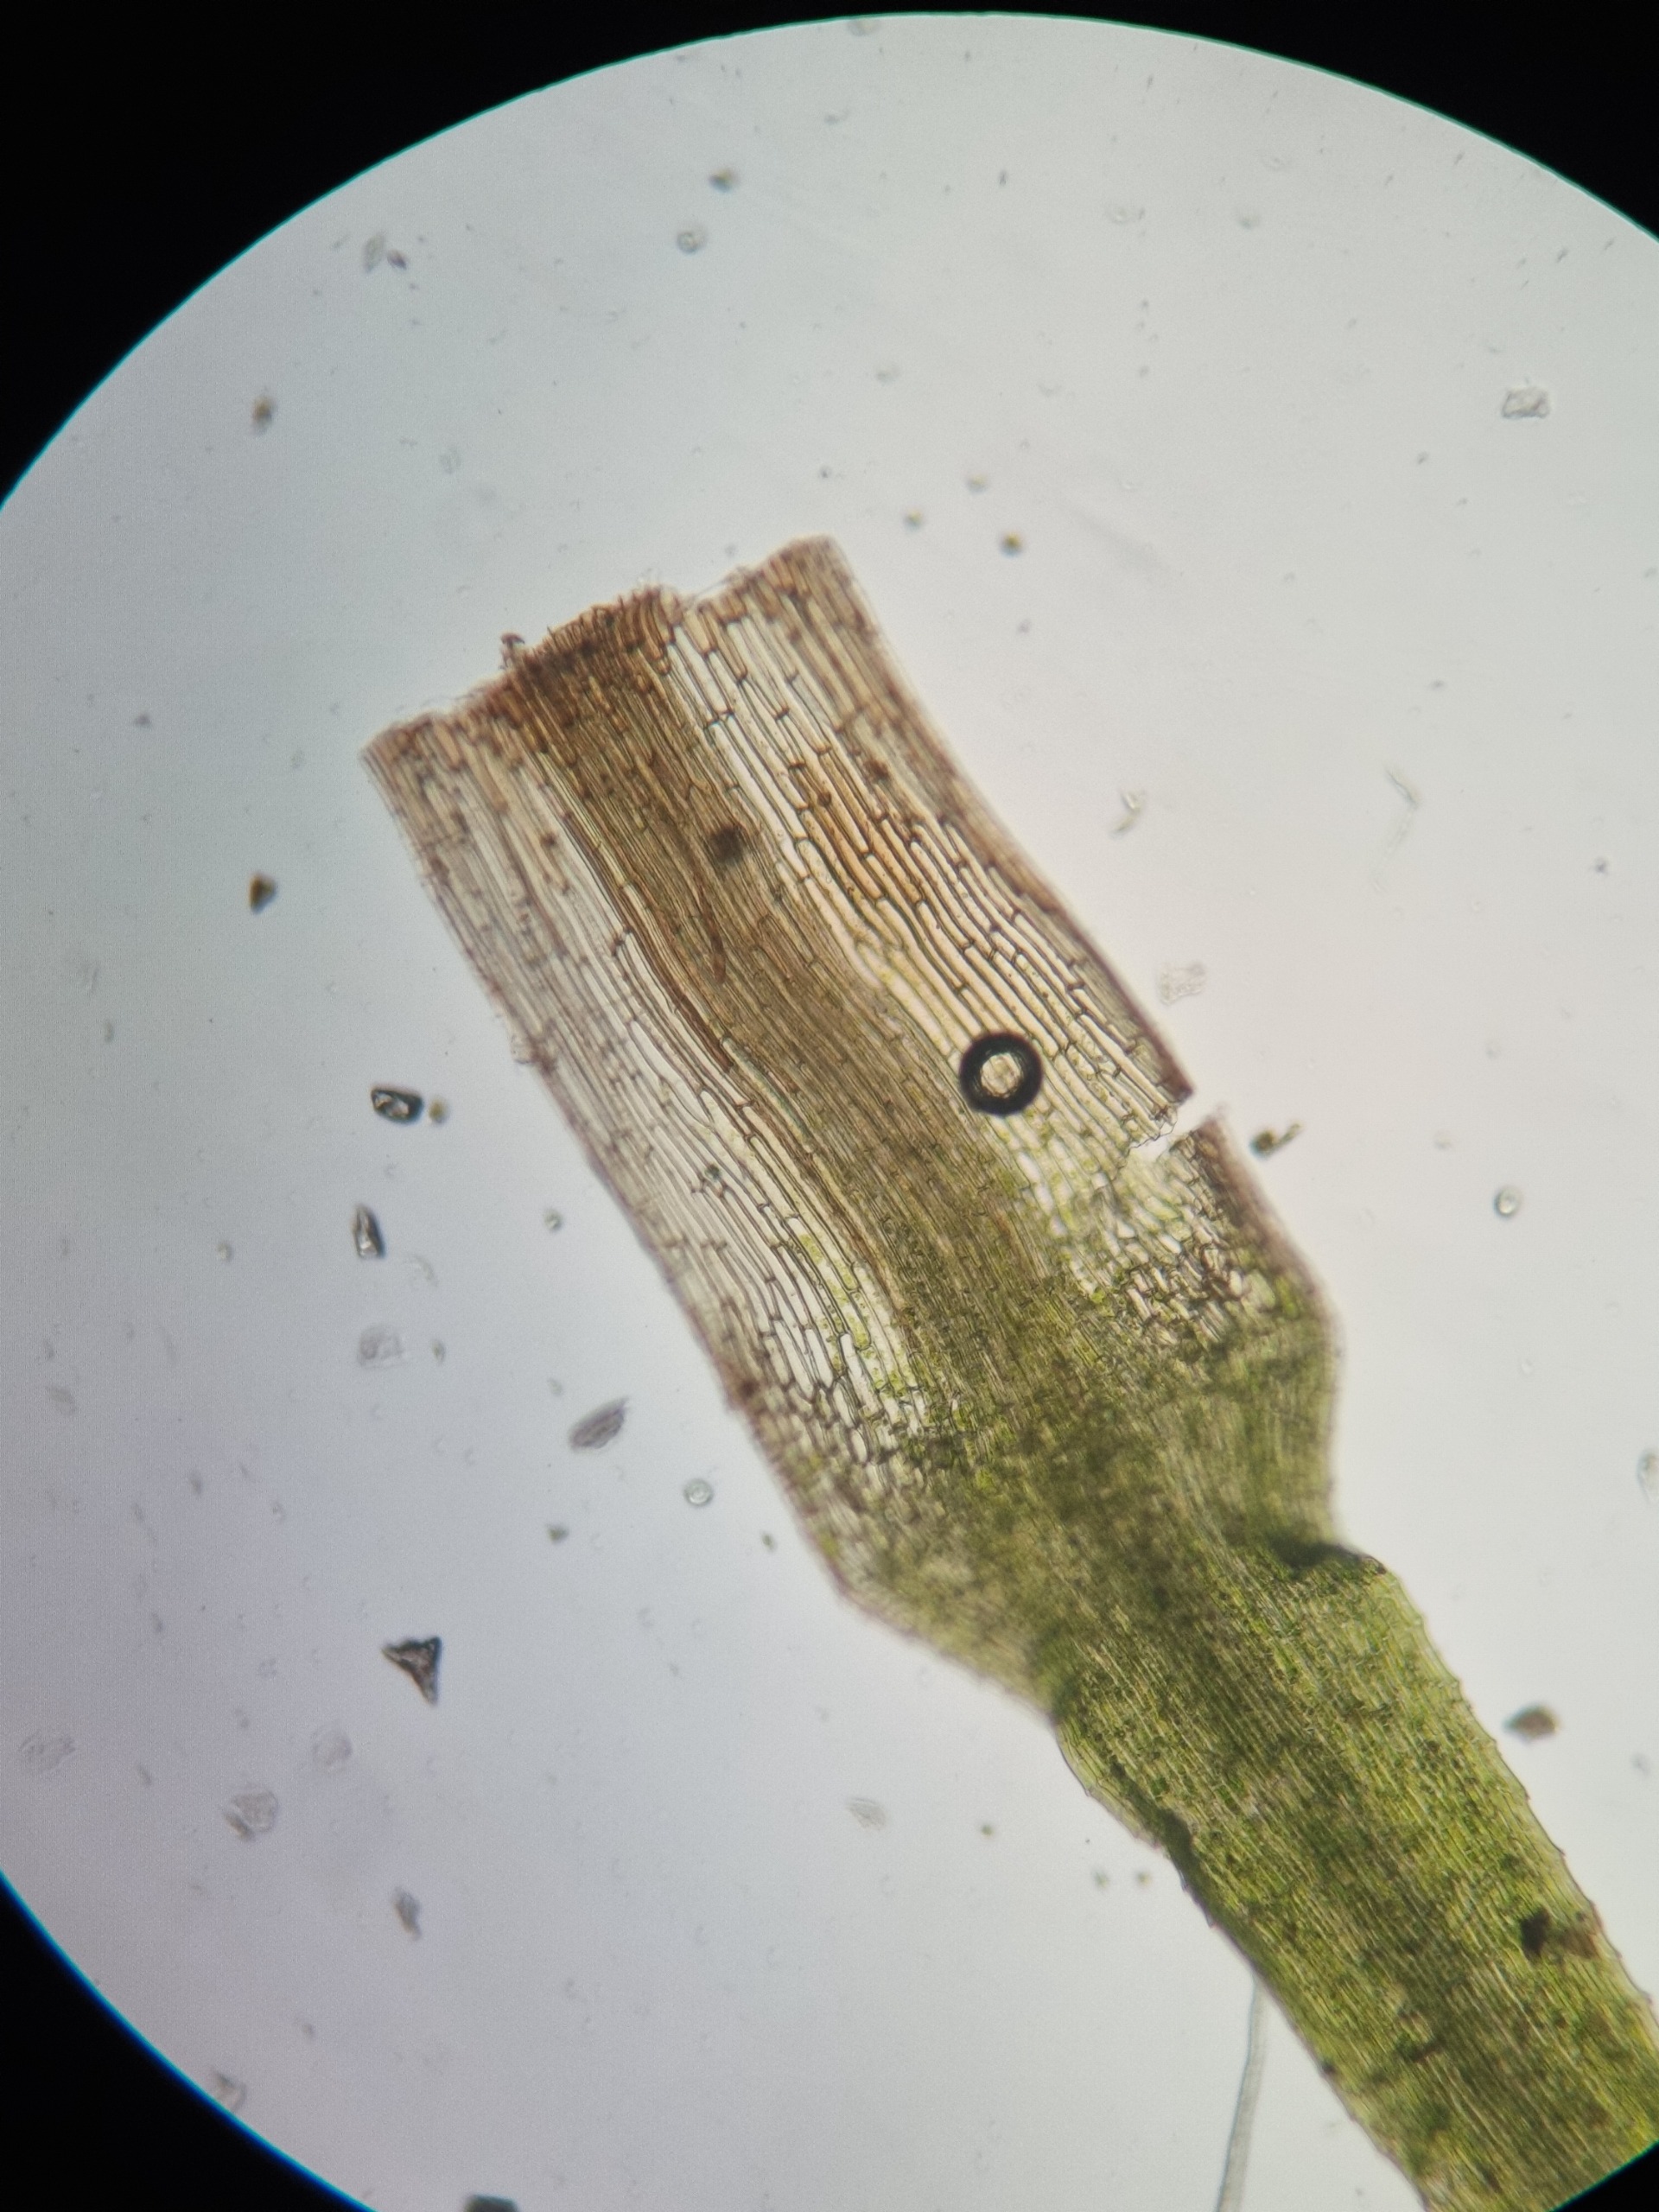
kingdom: Plantae
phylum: Bryophyta
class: Bryopsida
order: Bartramiales
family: Bartramiaceae
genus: Bartramia
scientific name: Bartramia ithyphylla
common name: Blågrøn kuglekapsel
